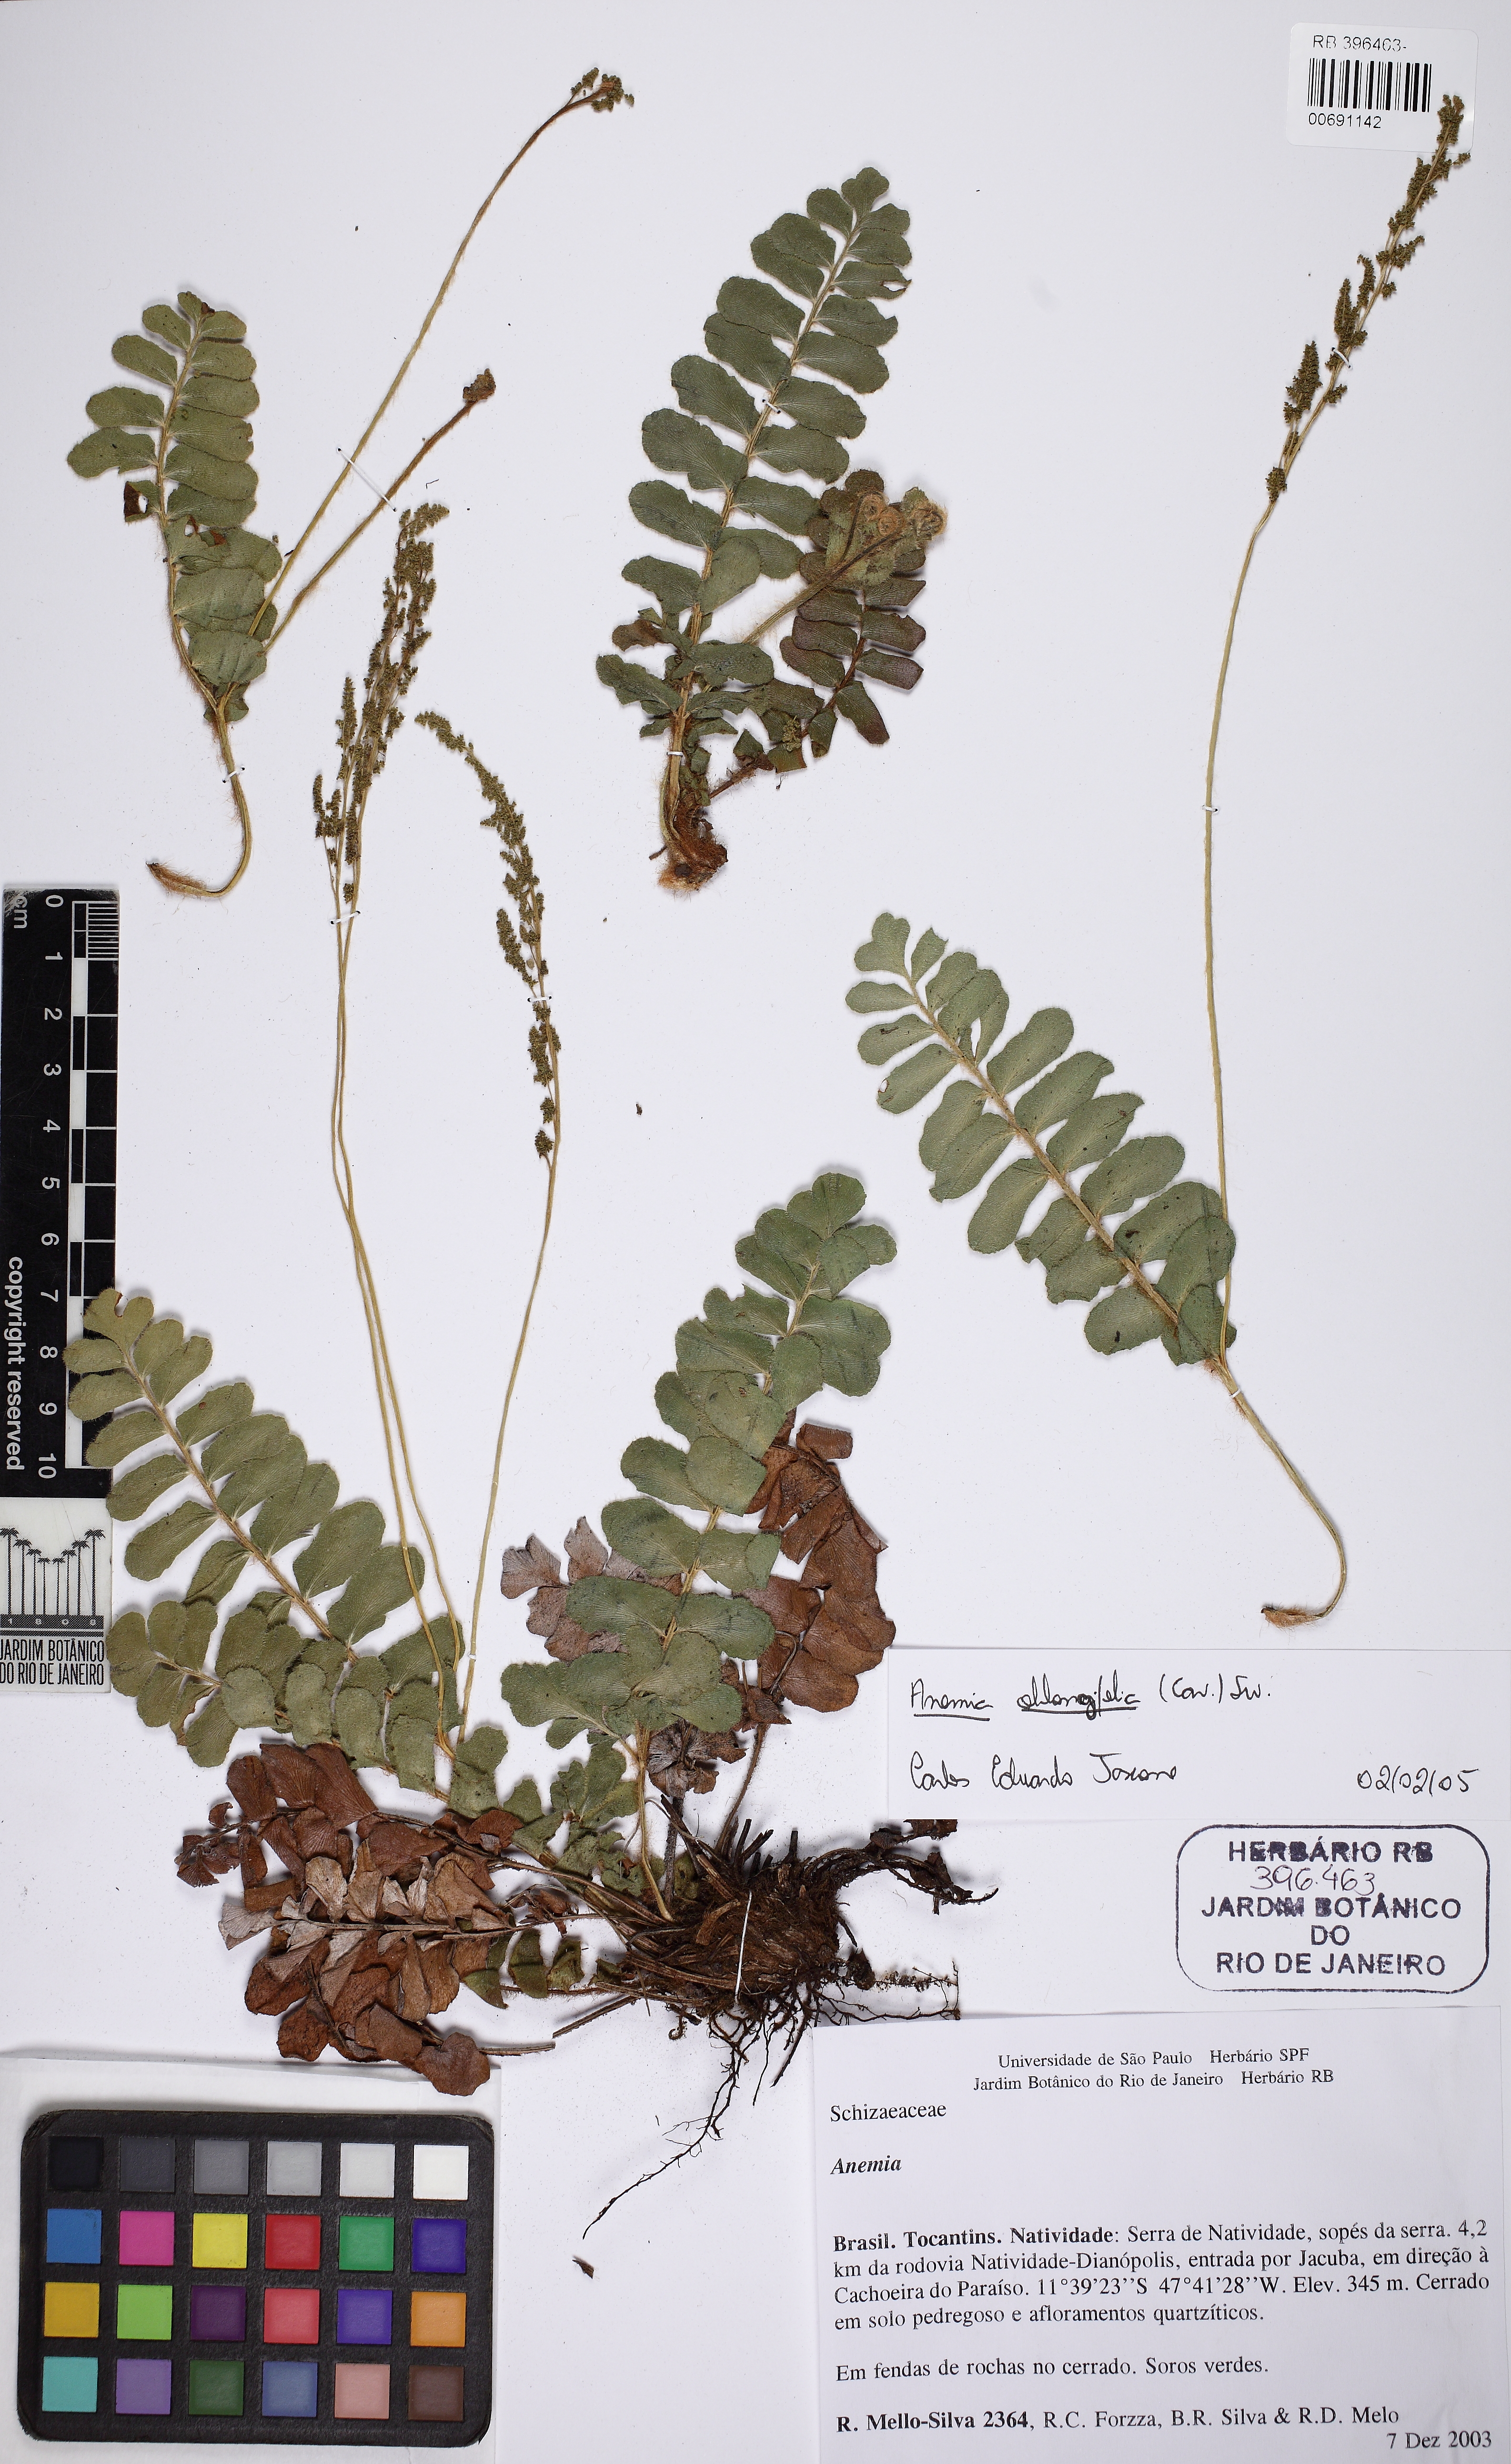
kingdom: Plantae
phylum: Tracheophyta
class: Polypodiopsida
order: Schizaeales
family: Anemiaceae
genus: Anemia
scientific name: Anemia oblongifolia
